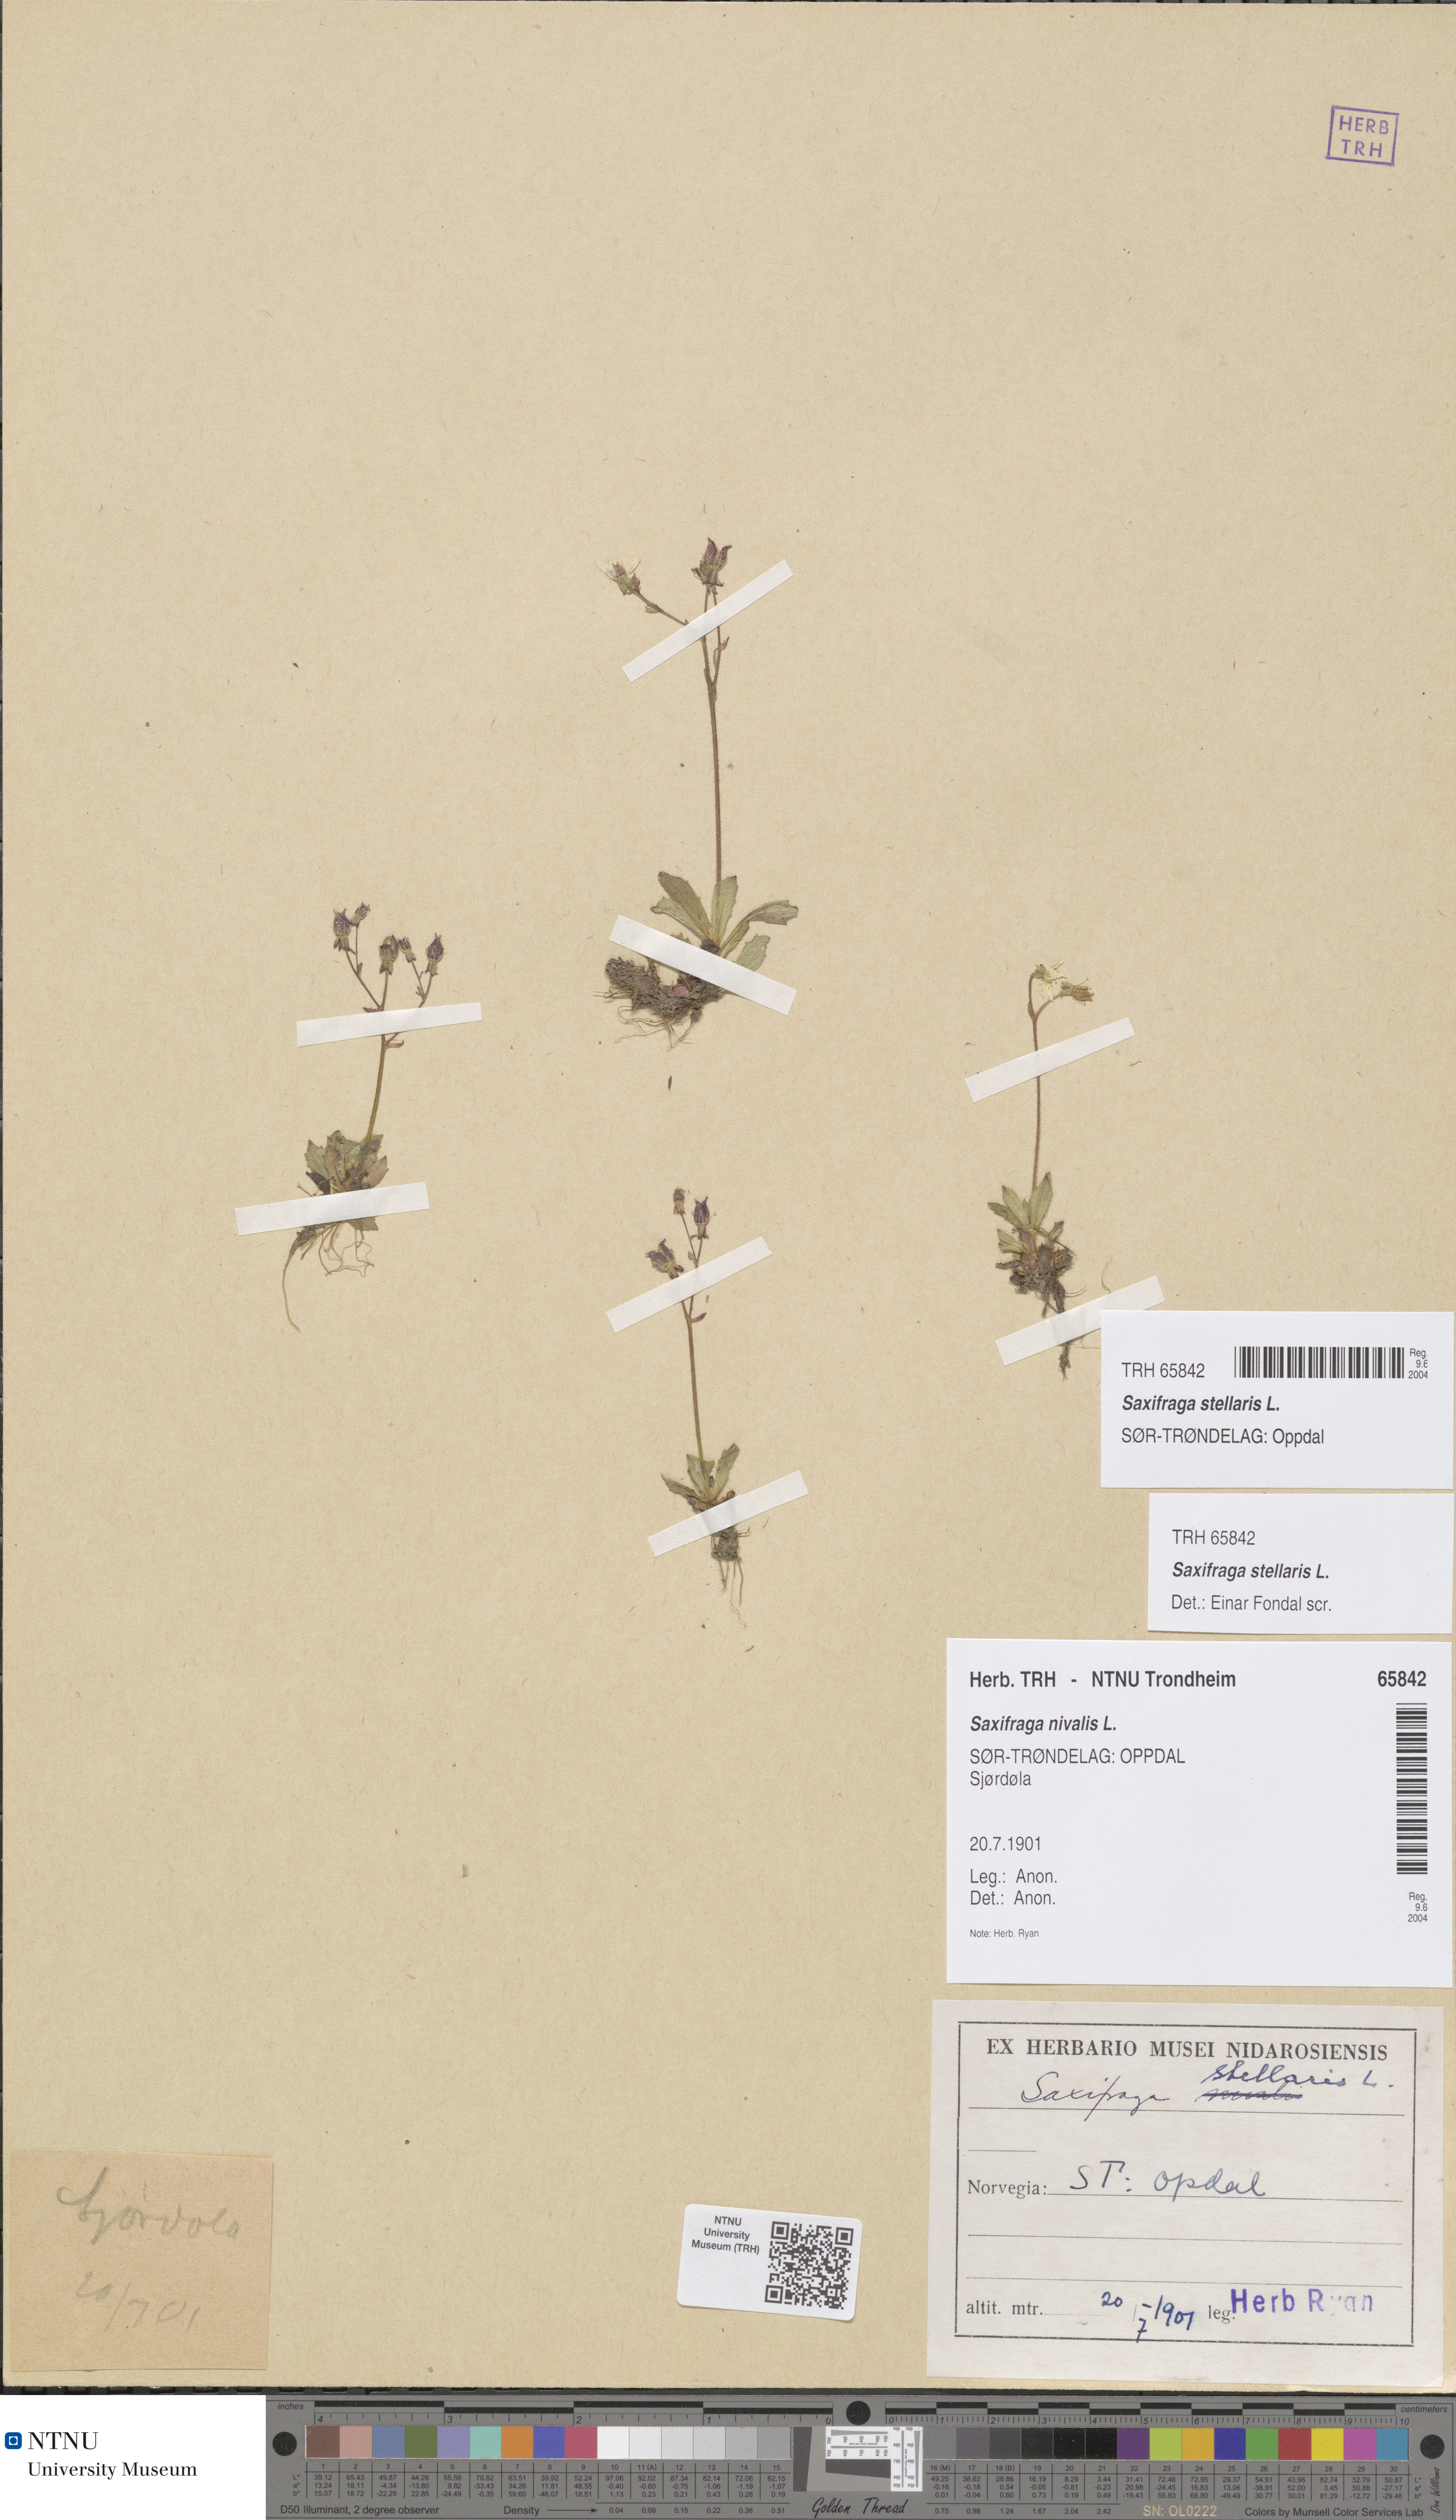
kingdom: Plantae
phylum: Tracheophyta
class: Magnoliopsida
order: Saxifragales
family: Saxifragaceae
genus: Micranthes
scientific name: Micranthes stellaris
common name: Starry saxifrage
